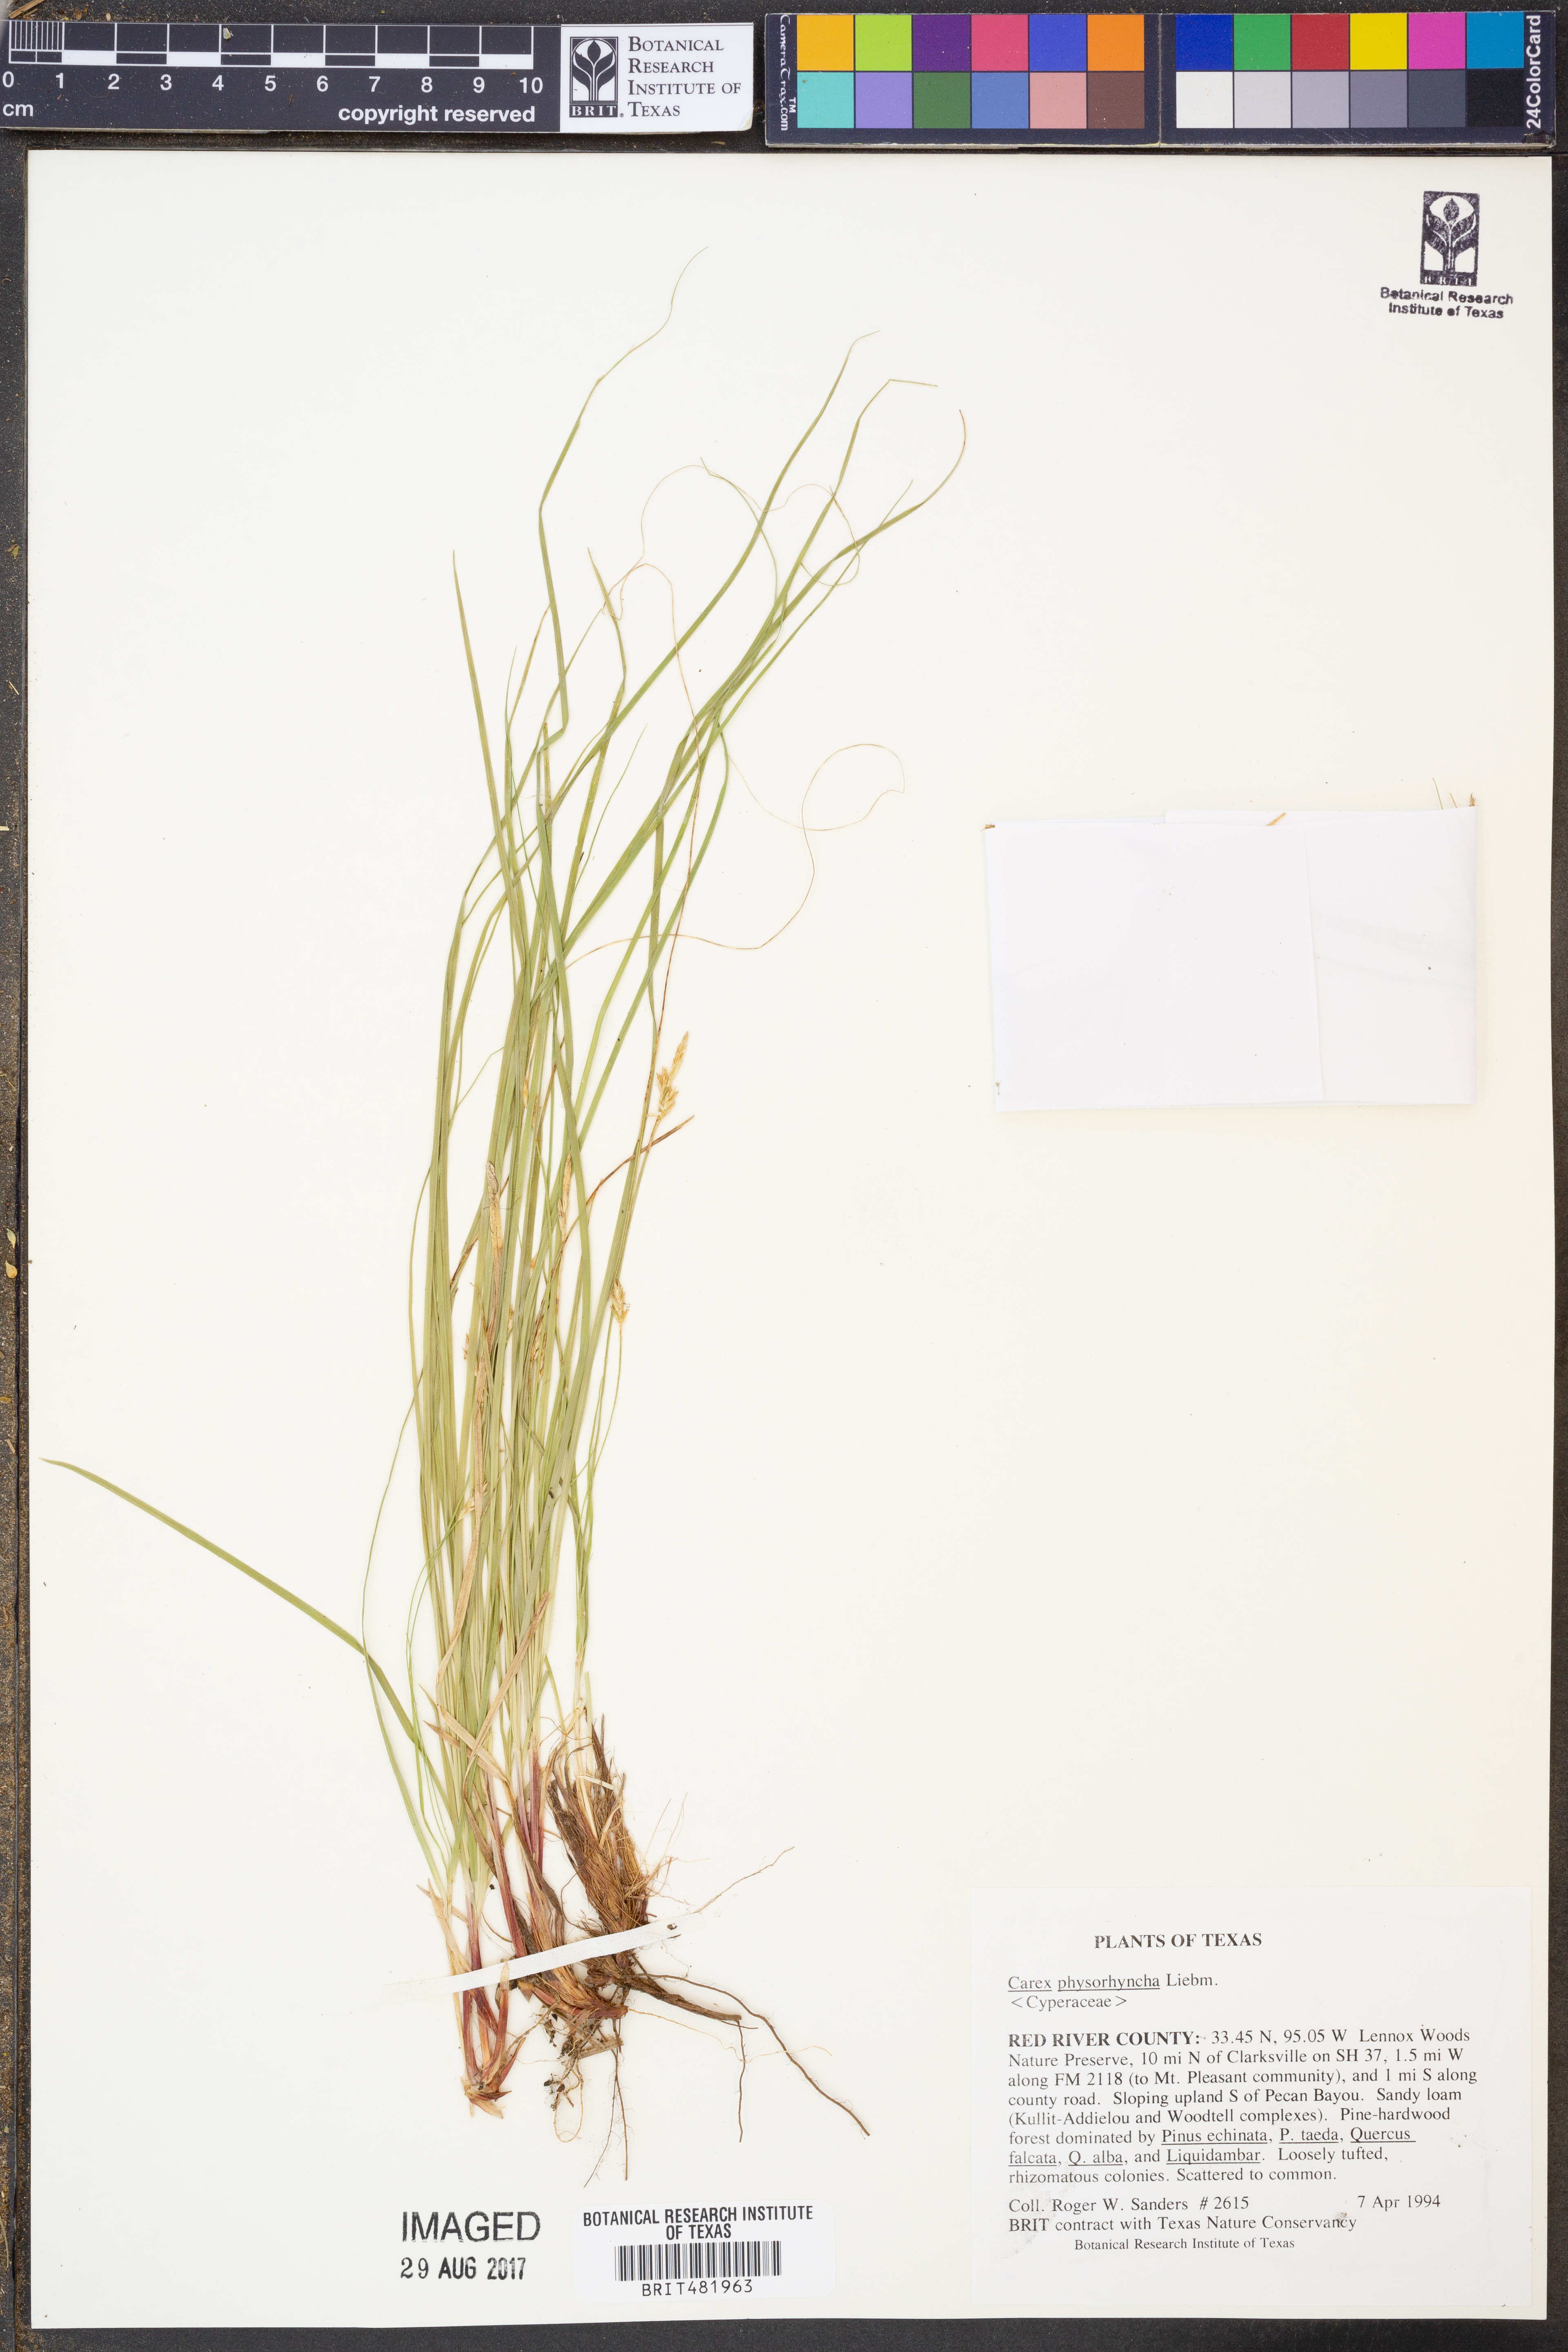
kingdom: Plantae
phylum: Tracheophyta
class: Liliopsida
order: Poales
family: Cyperaceae
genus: Carex
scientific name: Carex albicans
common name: Bellow-beaked sedge
